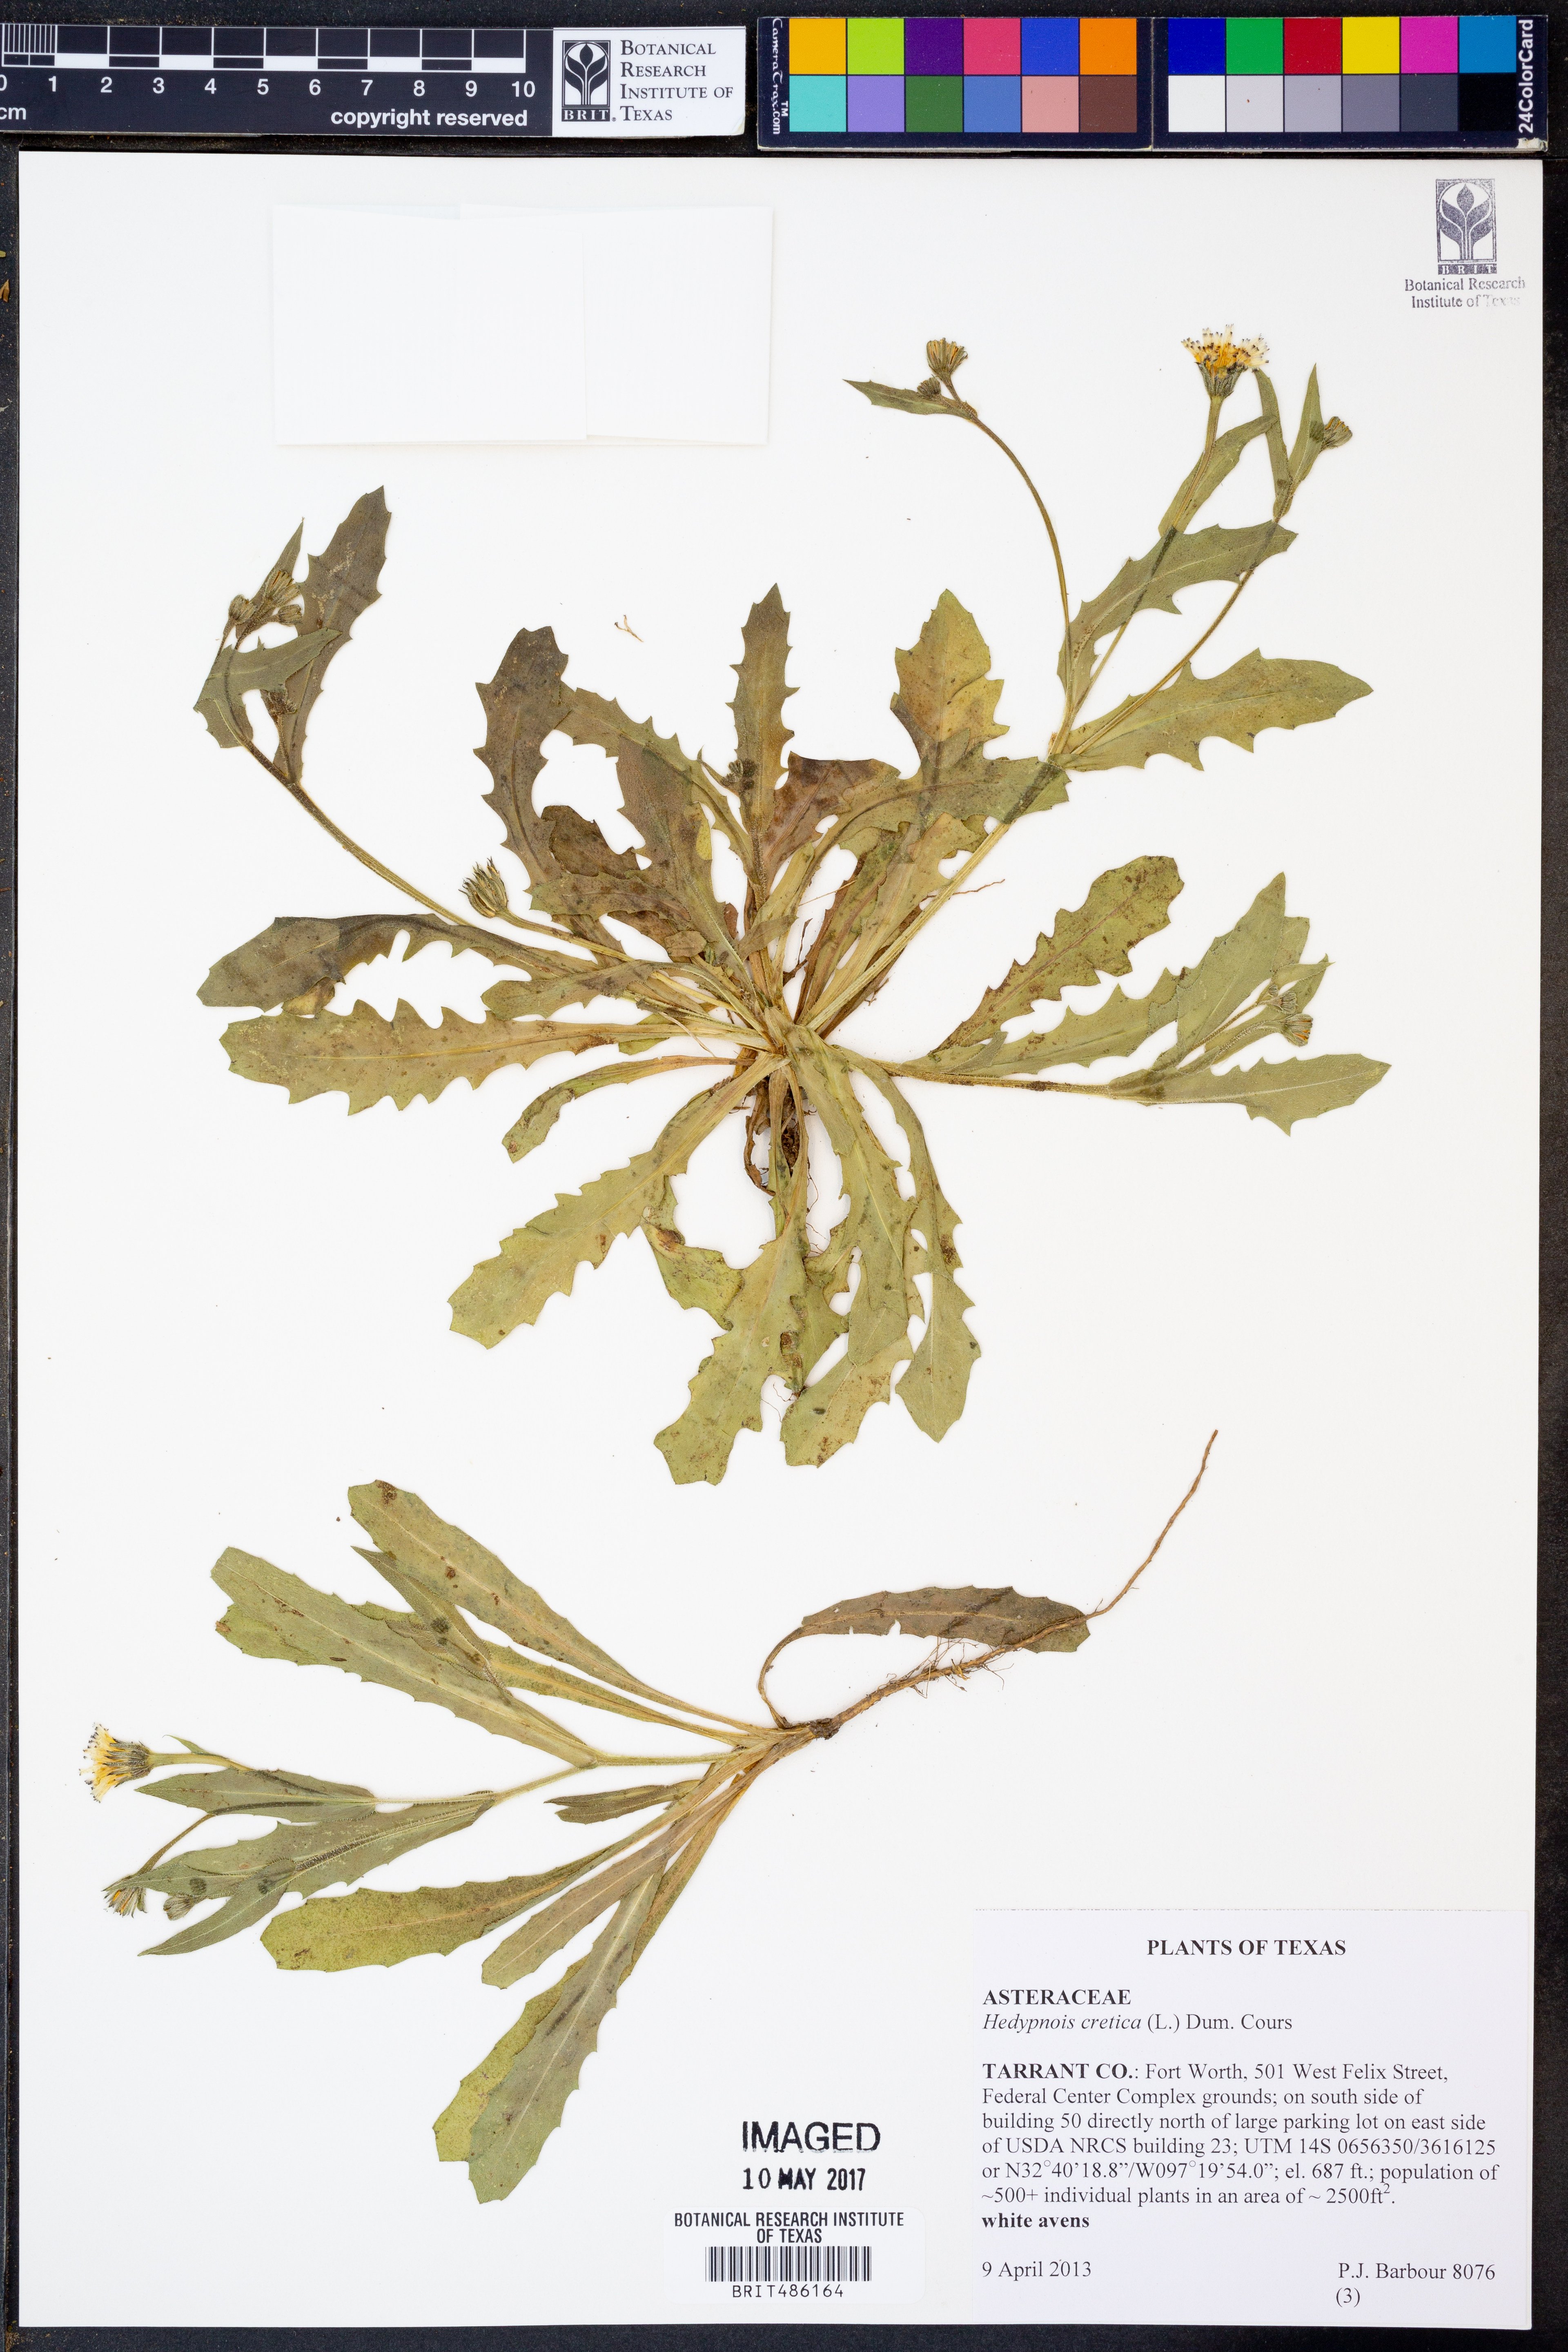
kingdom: Plantae
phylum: Tracheophyta
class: Magnoliopsida
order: Asterales
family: Asteraceae
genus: Hedypnois
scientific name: Hedypnois cretica
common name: Scaly hawkbit
